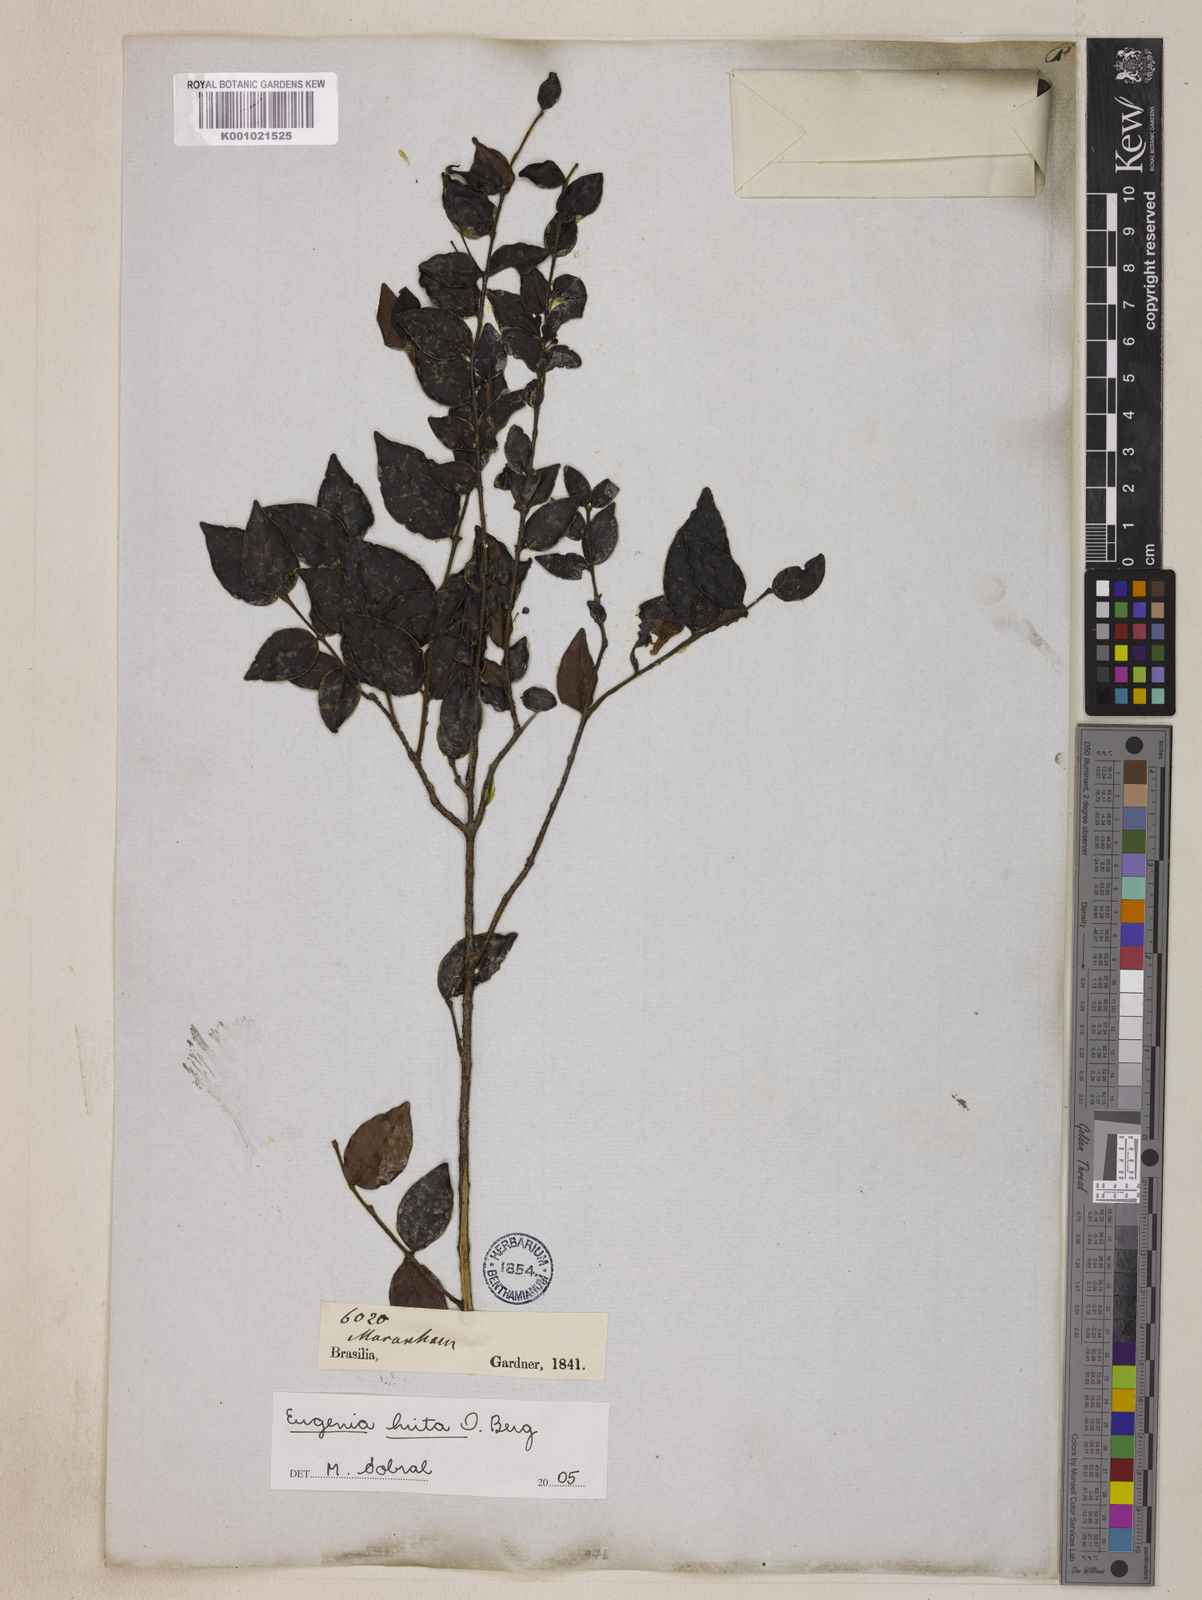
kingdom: Plantae
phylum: Tracheophyta
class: Magnoliopsida
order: Myrtales
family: Myrtaceae
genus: Eugenia
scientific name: Eugenia hirta
